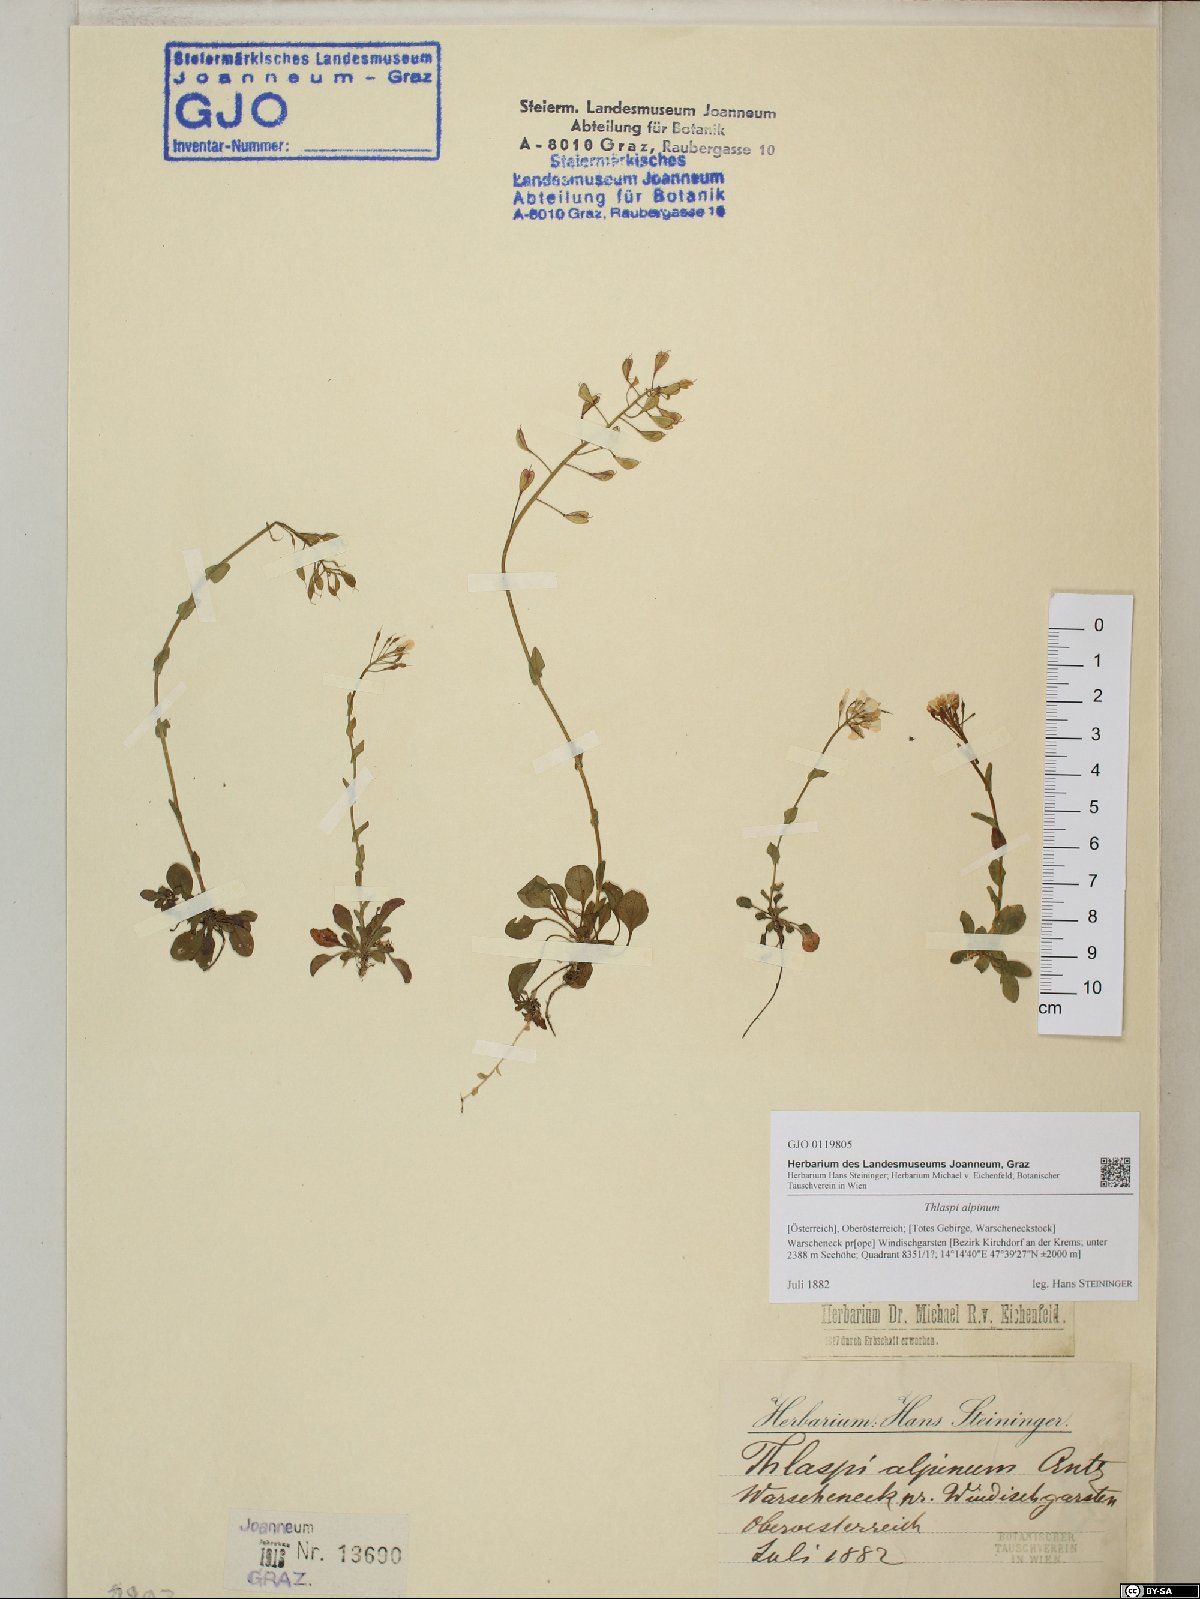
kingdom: Plantae
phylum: Tracheophyta
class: Magnoliopsida
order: Brassicales
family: Brassicaceae
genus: Noccaea
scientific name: Noccaea alpestris
